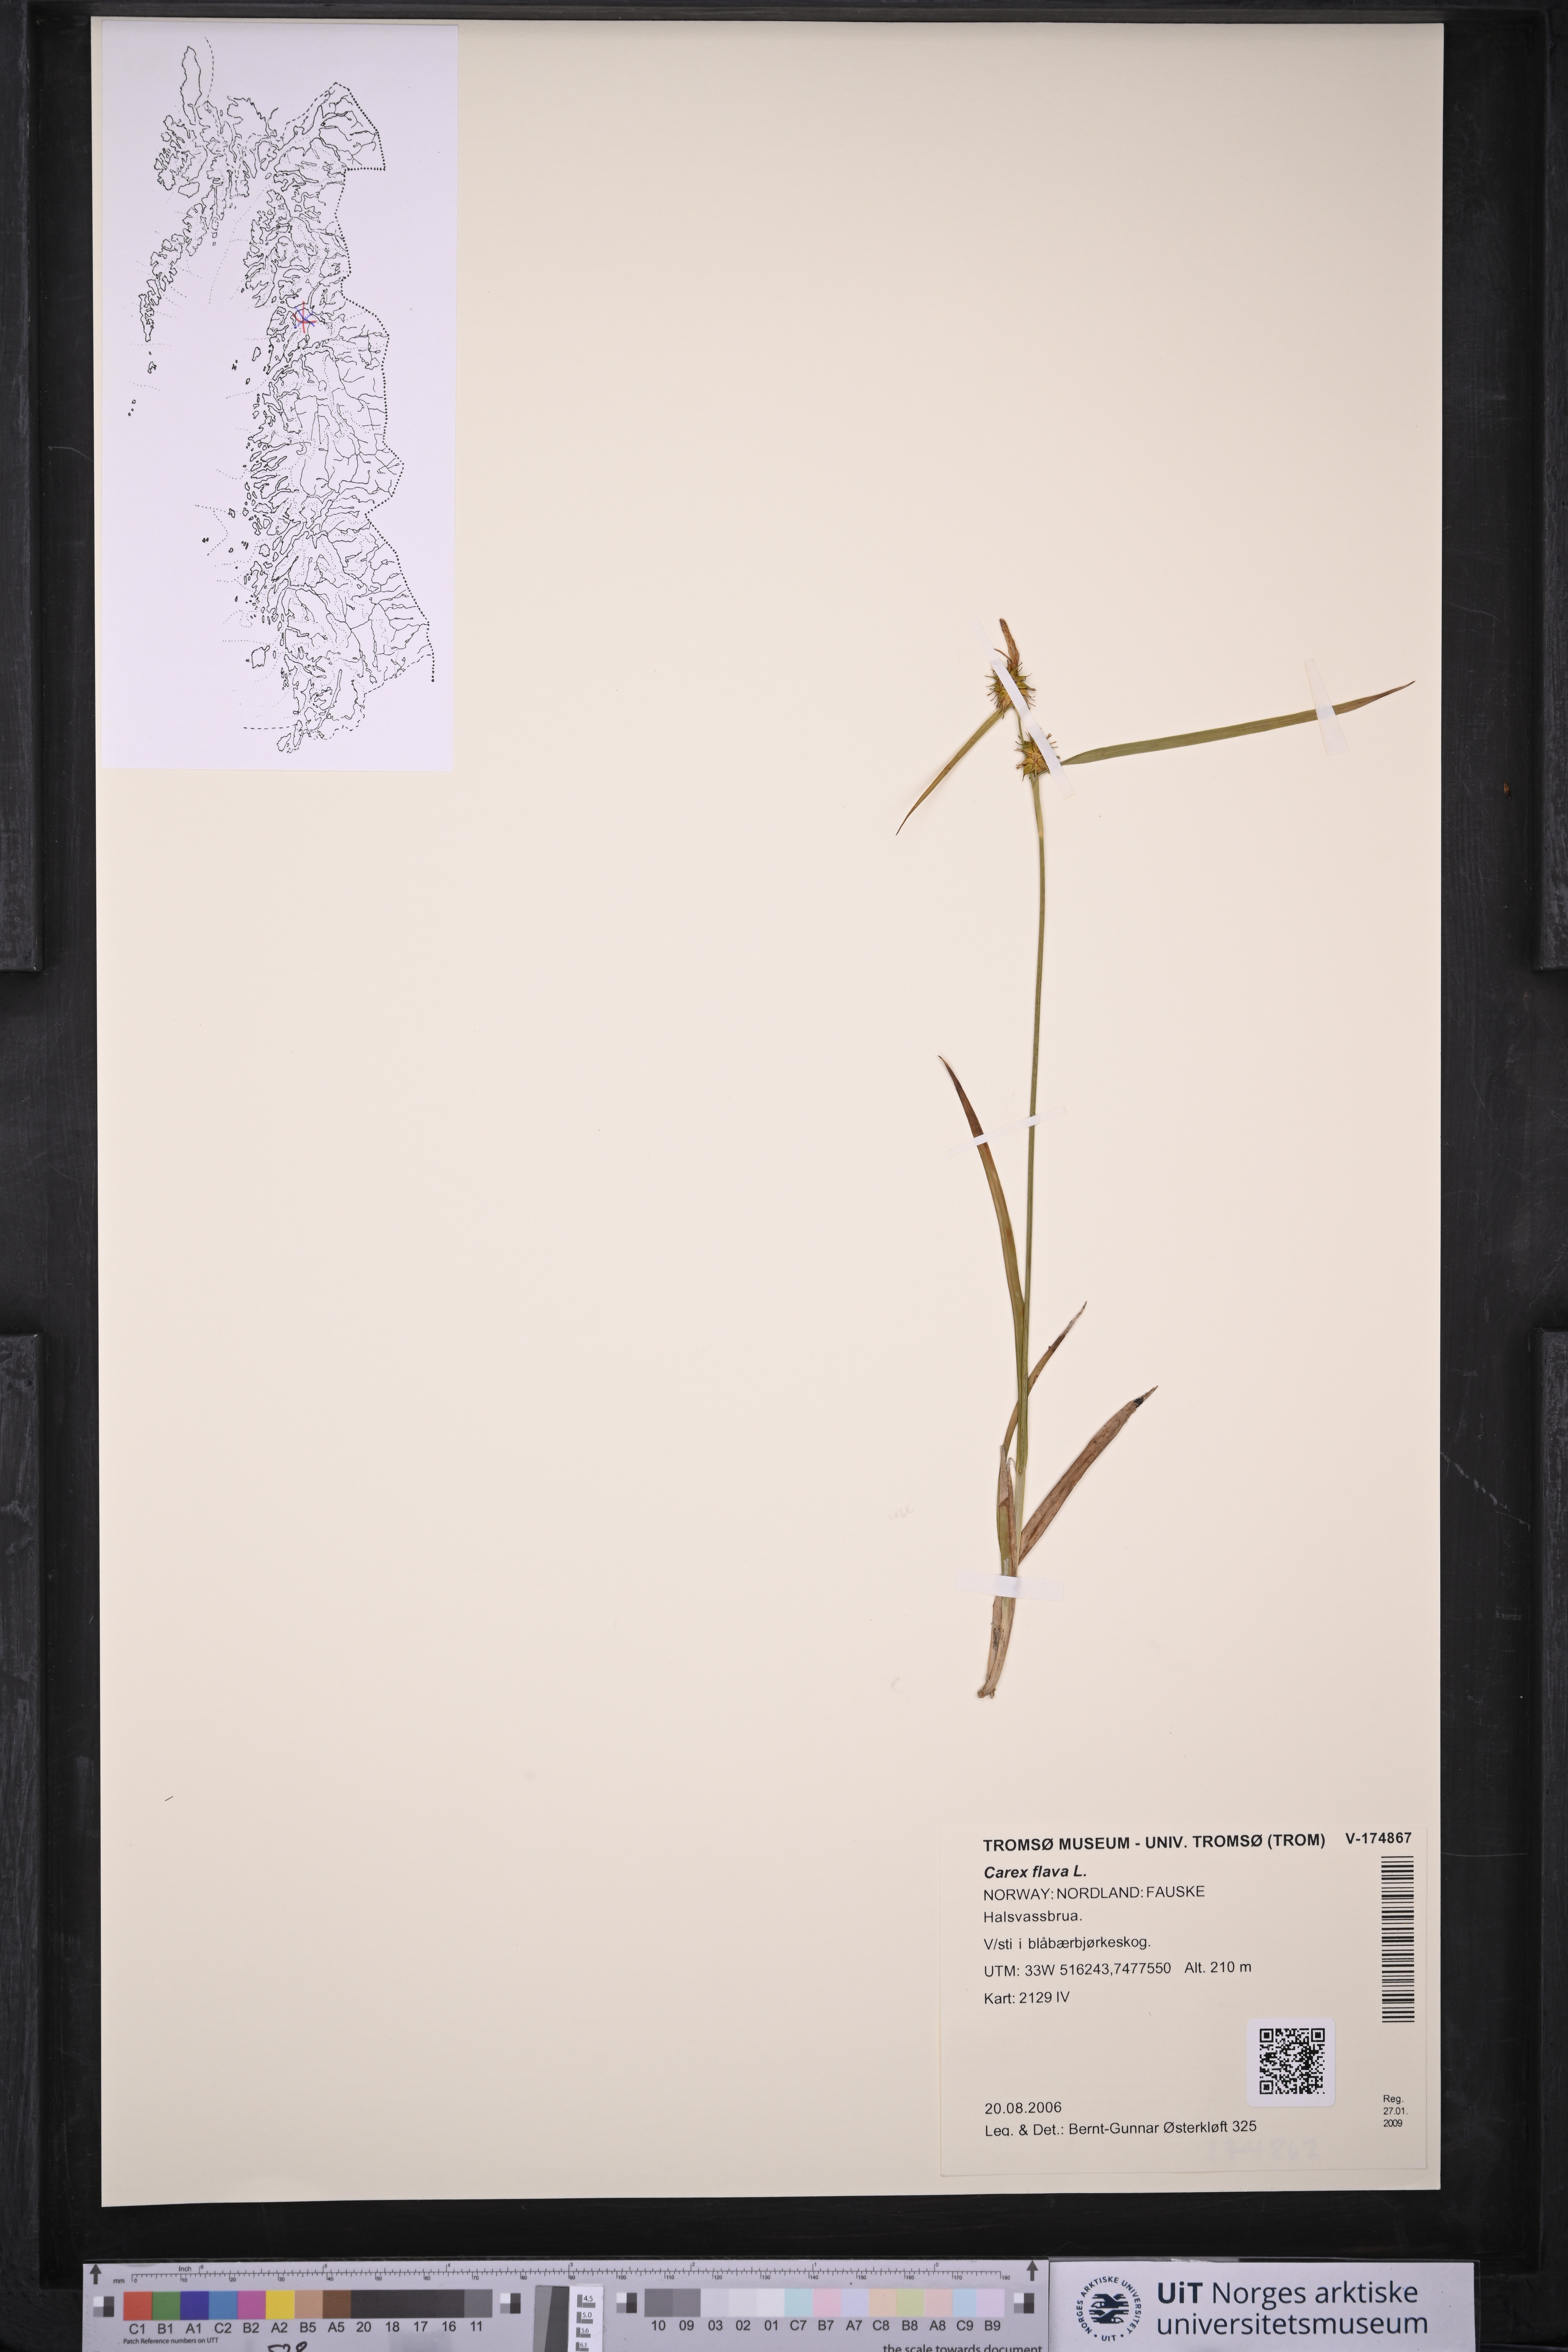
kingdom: Plantae
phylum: Tracheophyta
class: Liliopsida
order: Poales
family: Cyperaceae
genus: Carex
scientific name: Carex flava
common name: Large yellow-sedge
